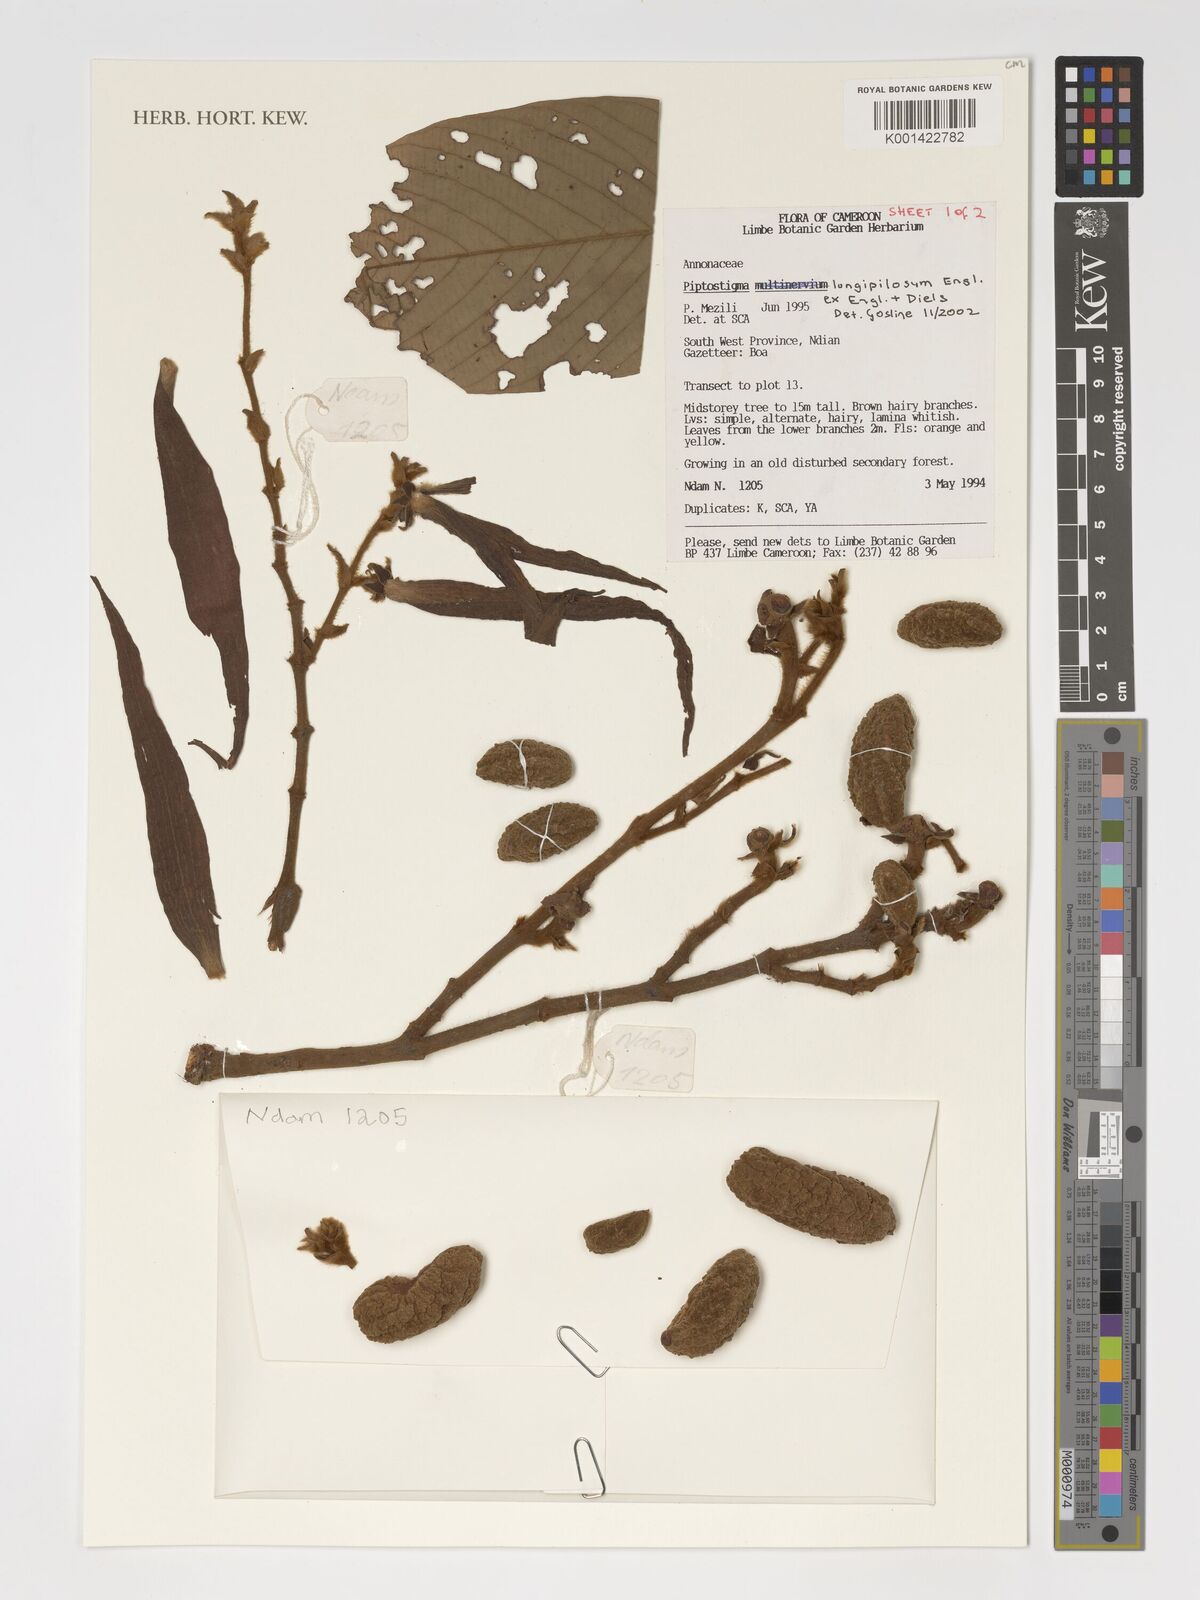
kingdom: Plantae
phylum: Tracheophyta
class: Magnoliopsida
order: Magnoliales
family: Annonaceae
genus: Piptostigma
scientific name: Piptostigma longepilosum
